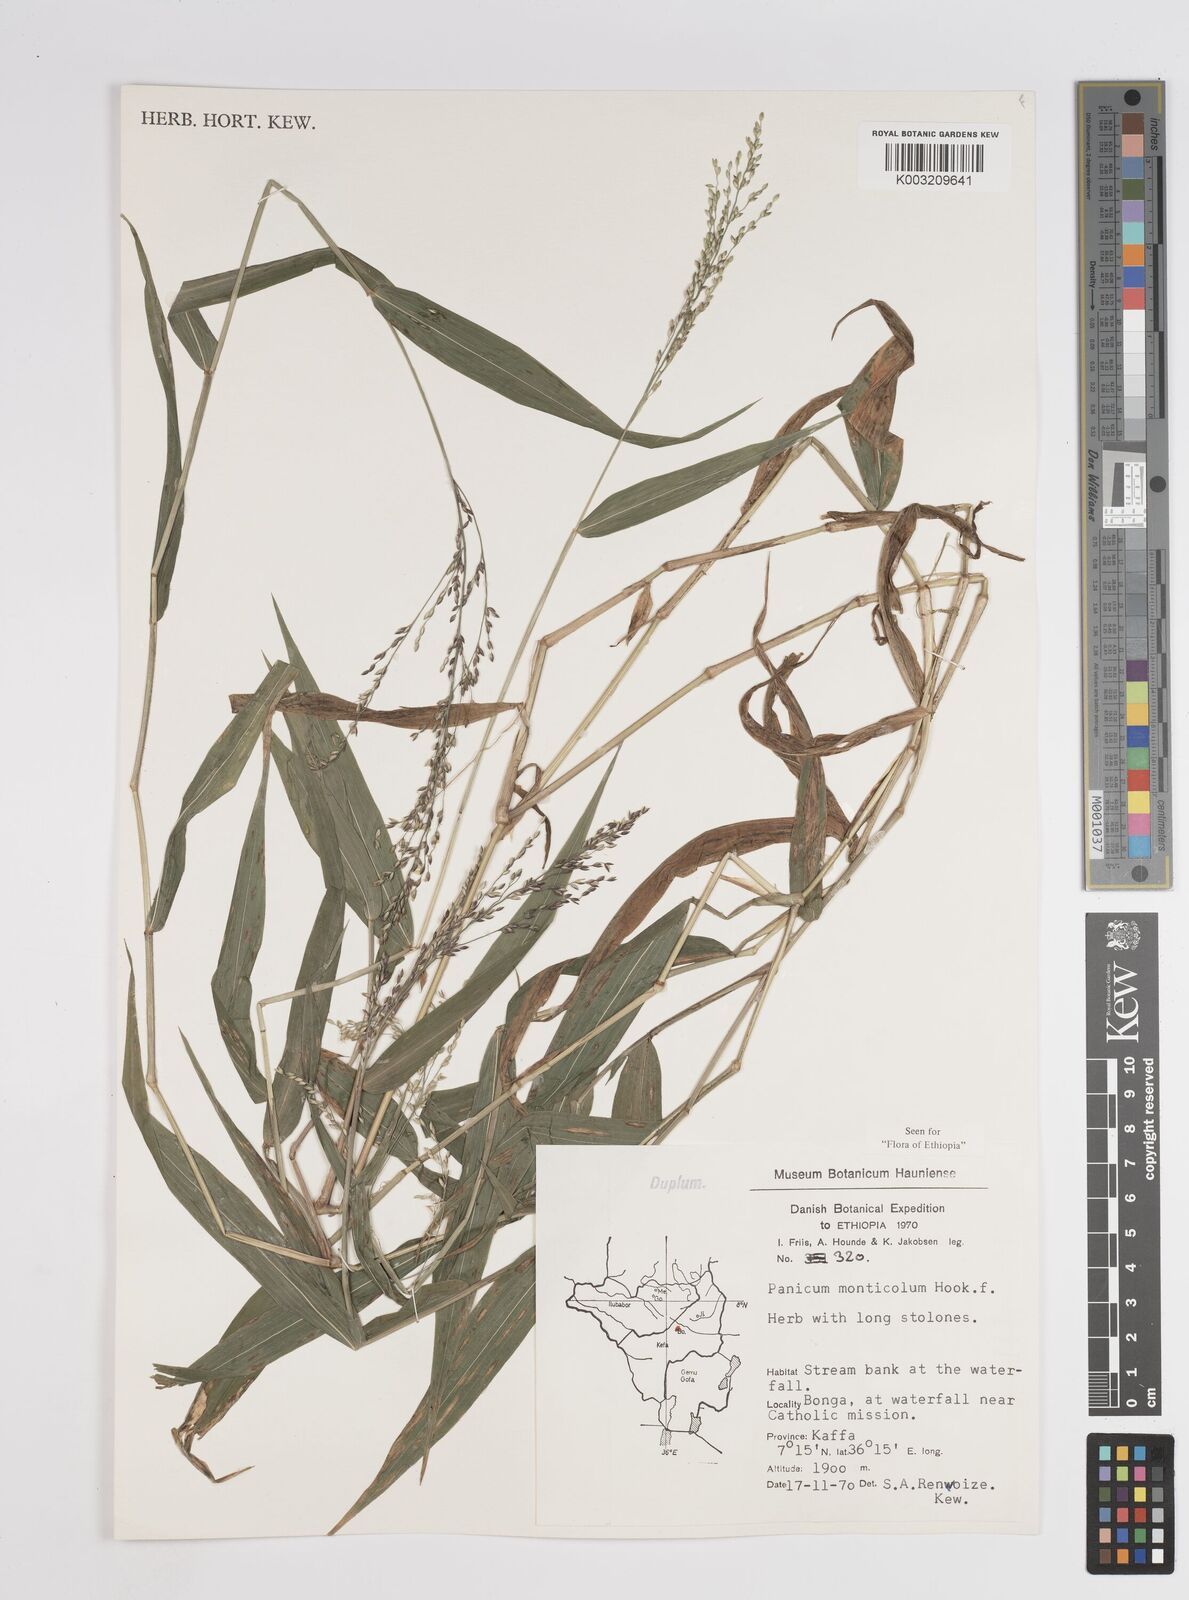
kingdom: Plantae
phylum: Tracheophyta
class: Liliopsida
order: Poales
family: Poaceae
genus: Panicum
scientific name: Panicum monticola
